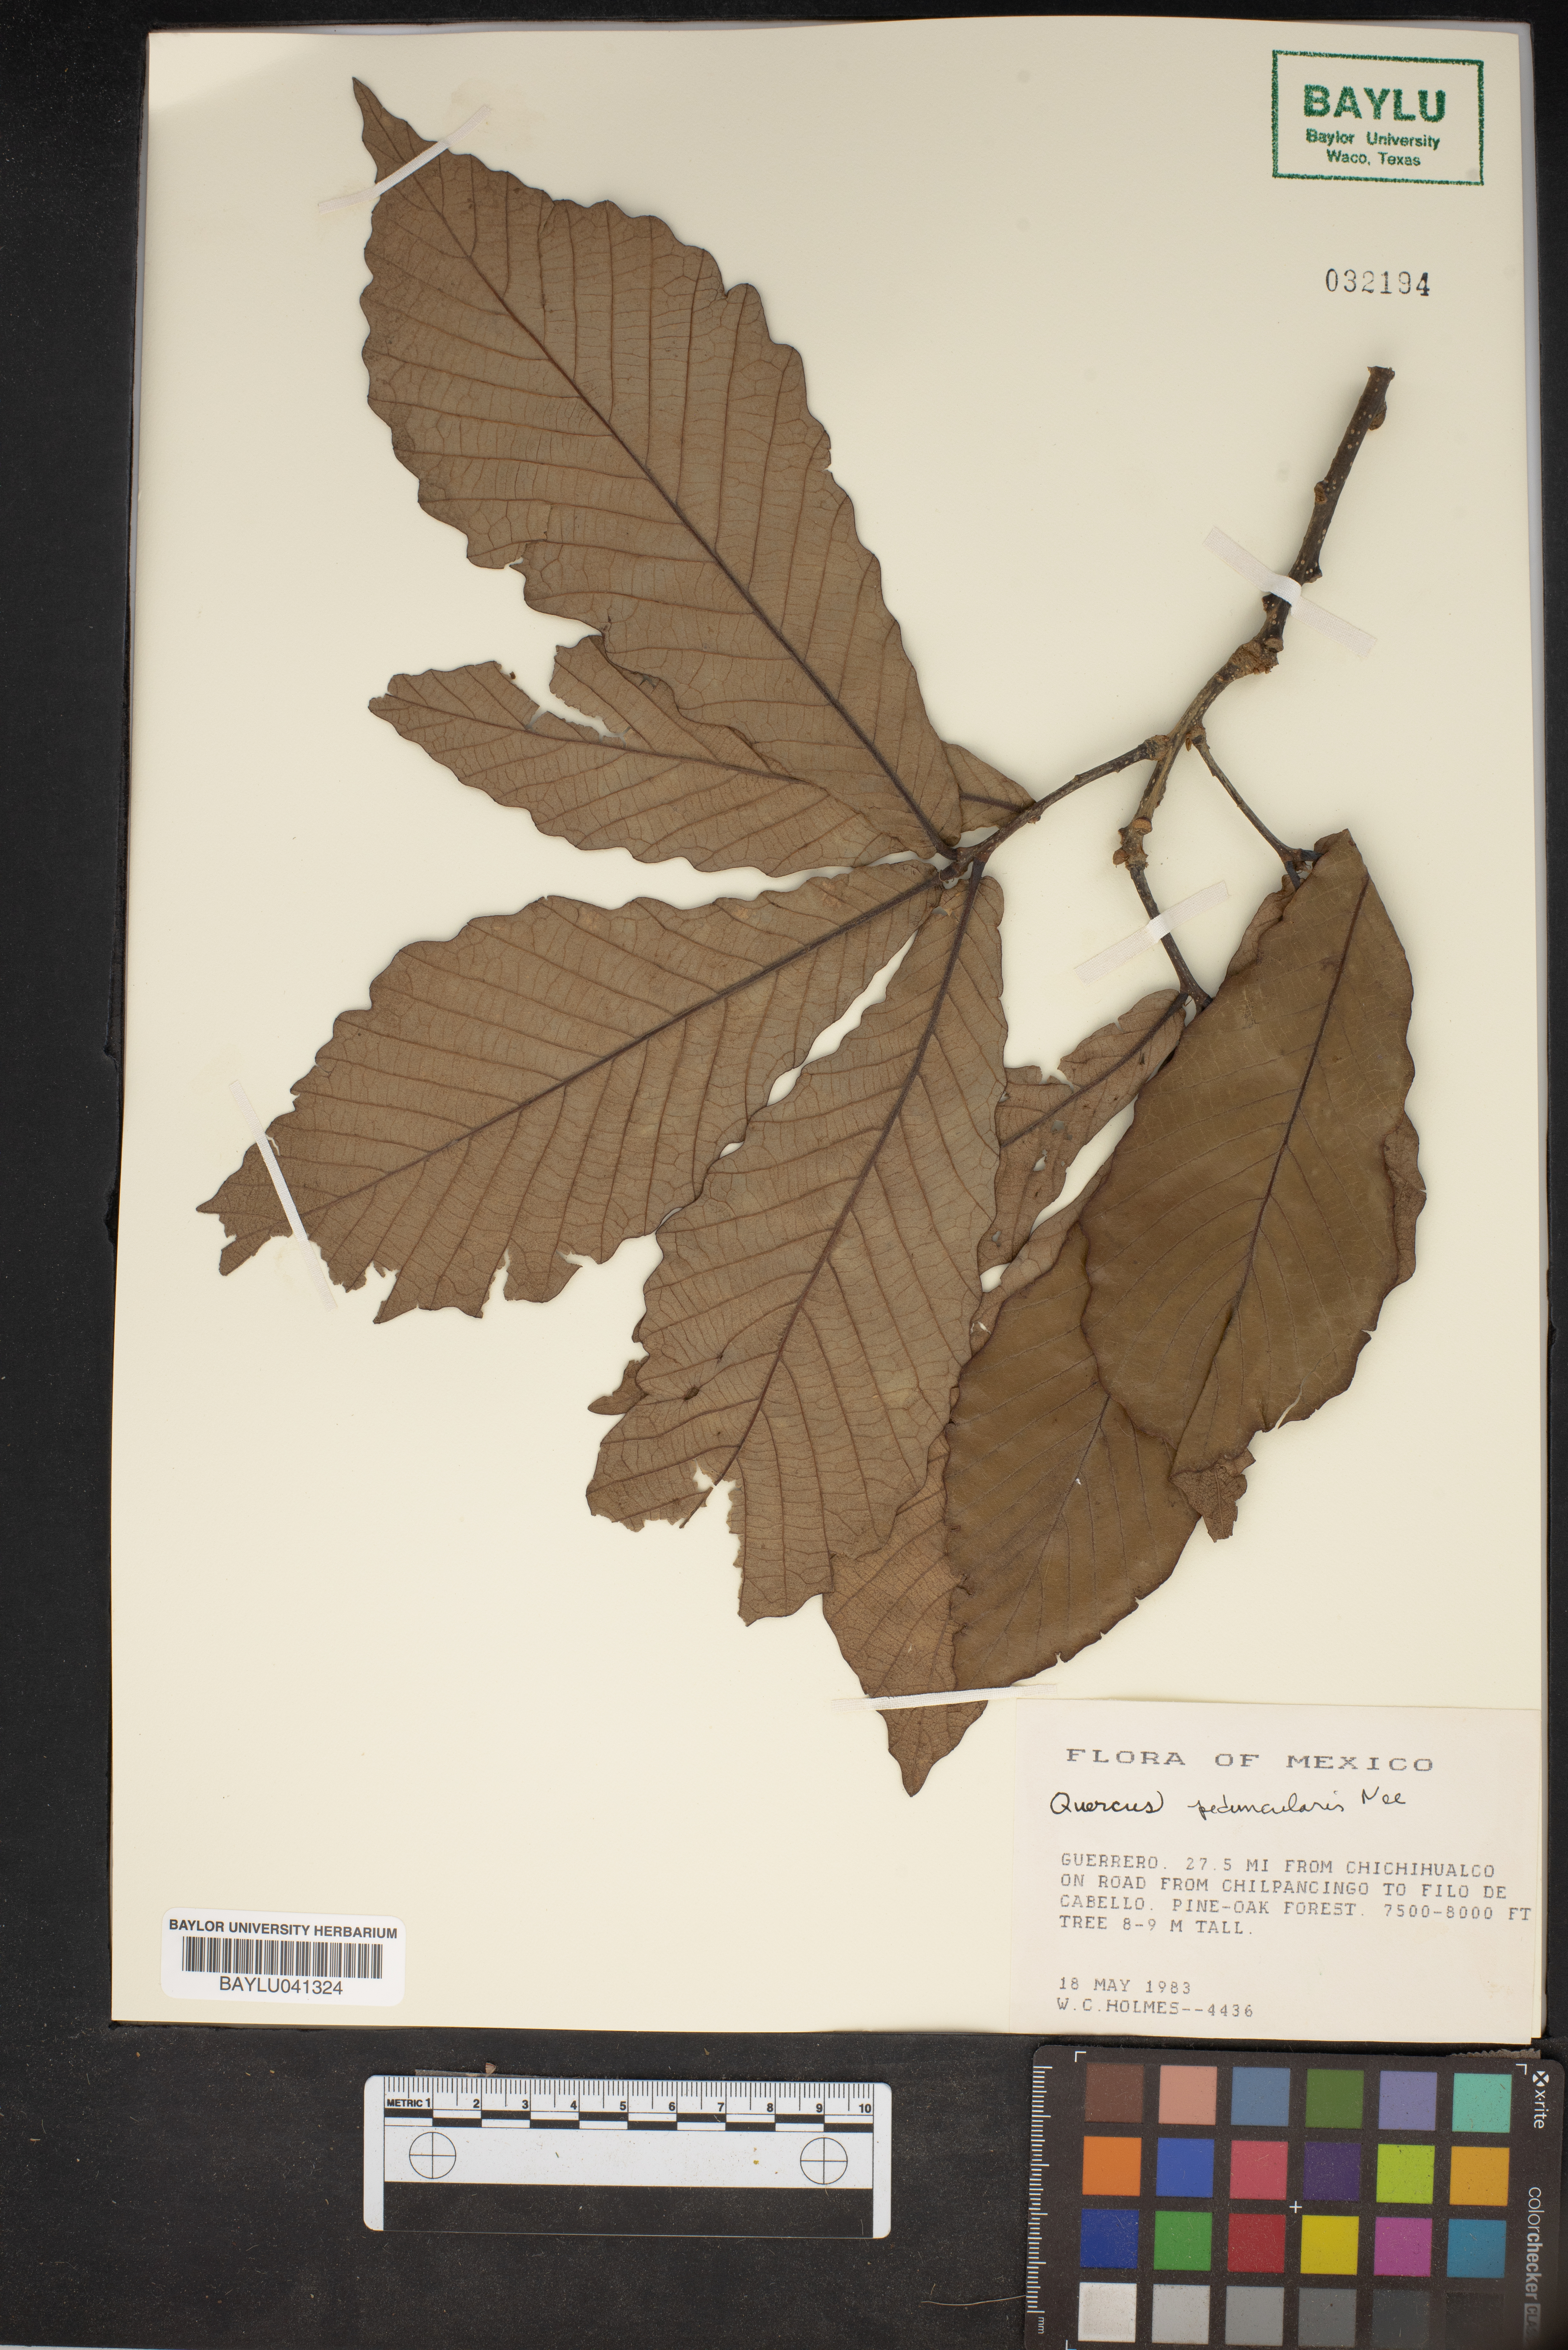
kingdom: Plantae
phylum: Tracheophyta
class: Magnoliopsida
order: Fagales
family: Fagaceae
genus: Quercus
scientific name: Quercus peduncularis
